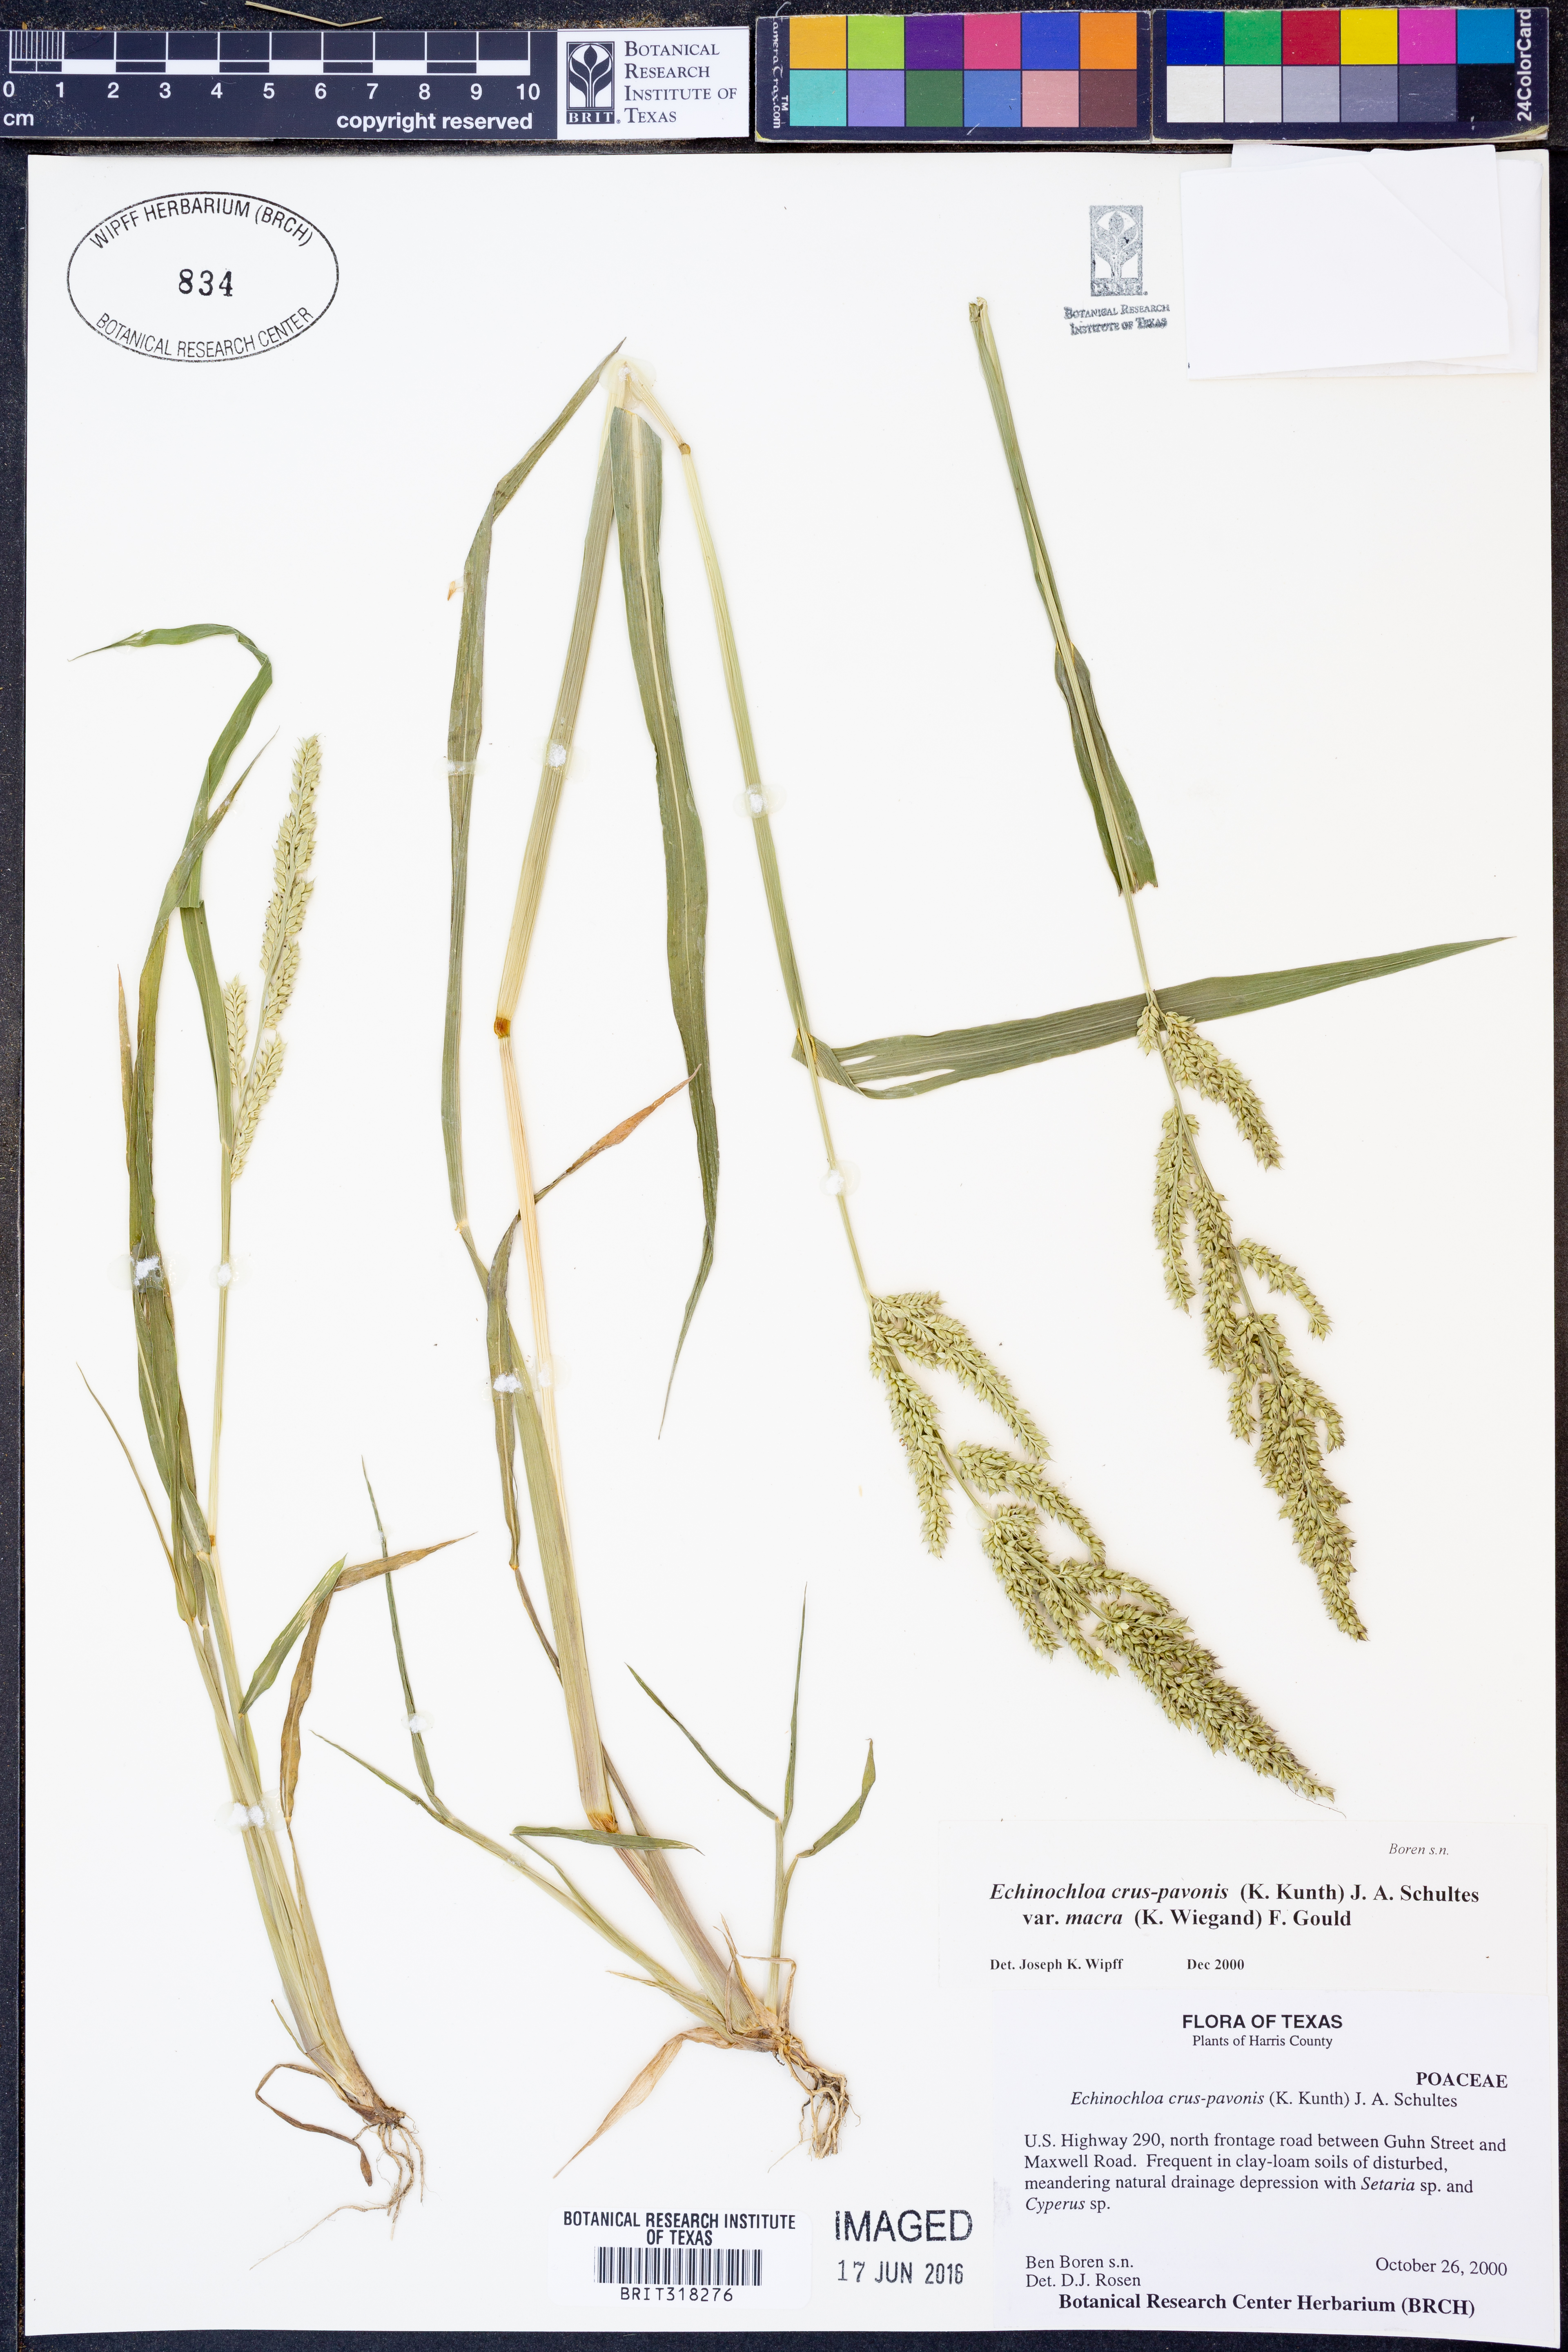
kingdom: Plantae
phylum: Tracheophyta
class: Liliopsida
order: Poales
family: Poaceae
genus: Echinochloa
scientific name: Echinochloa crus-pavonis
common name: Gulf cockspur grass
